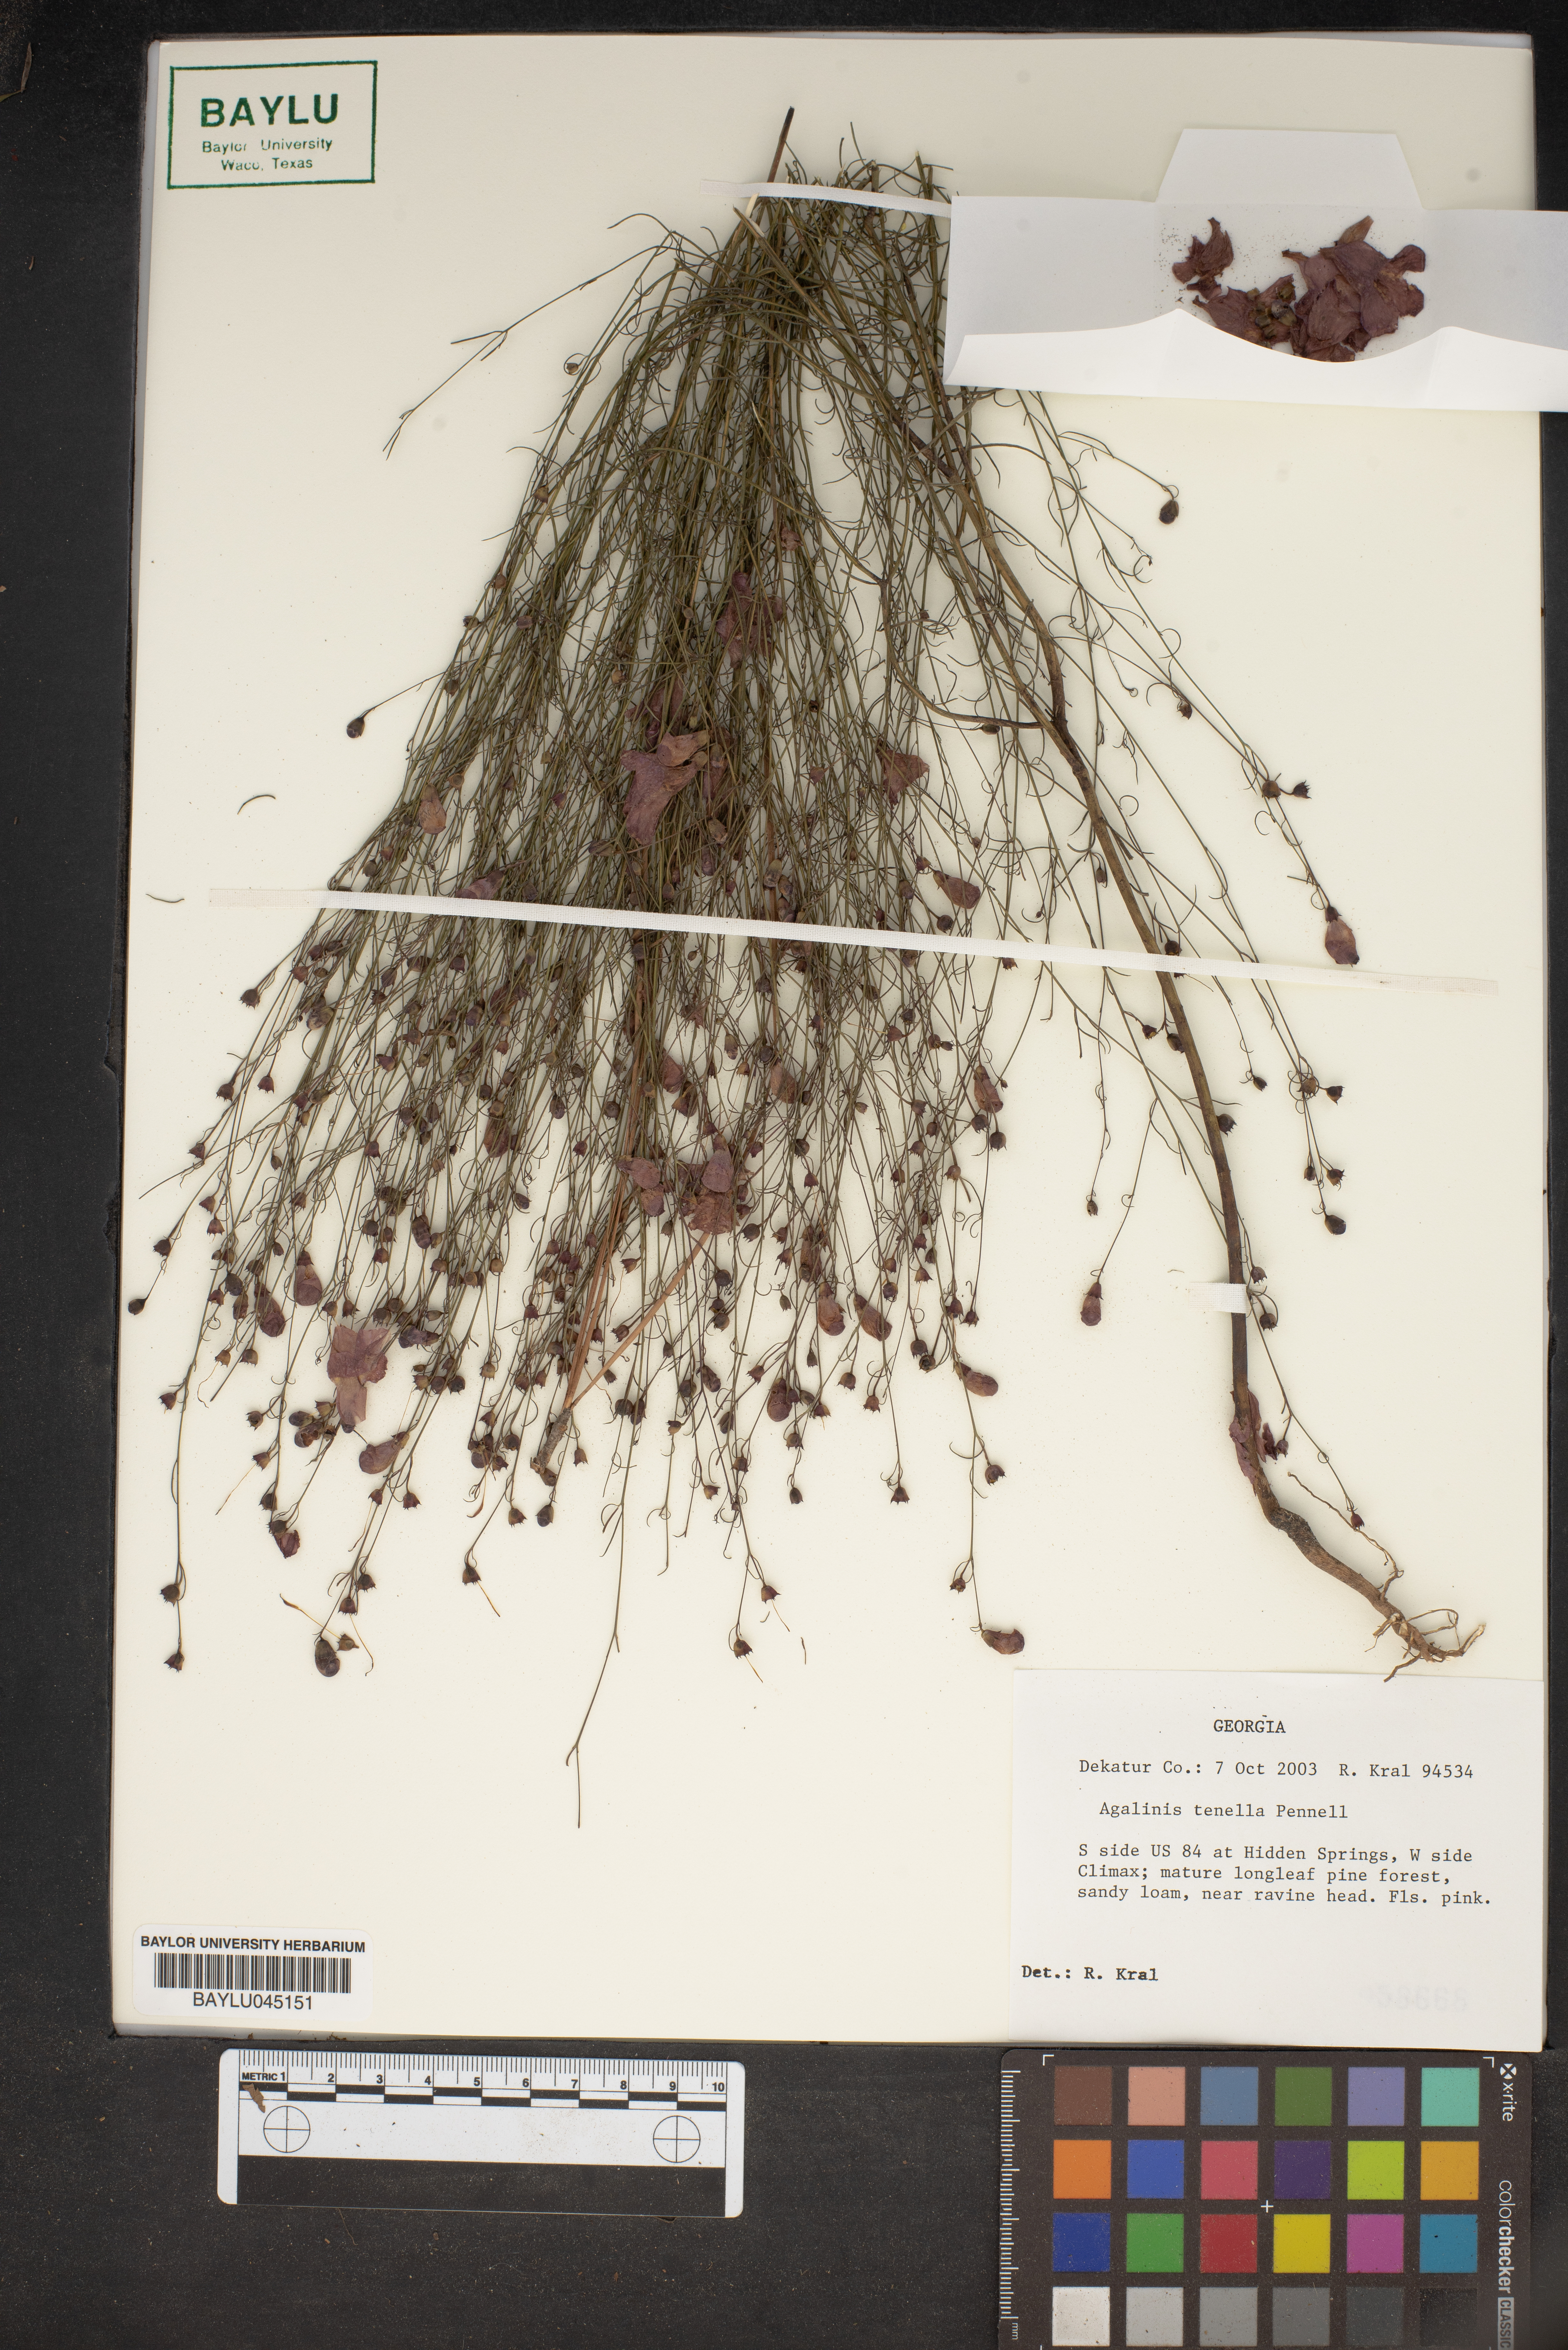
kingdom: Plantae
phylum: Tracheophyta
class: Magnoliopsida
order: Lamiales
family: Orobanchaceae
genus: Agalinis
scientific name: Agalinis tenella
